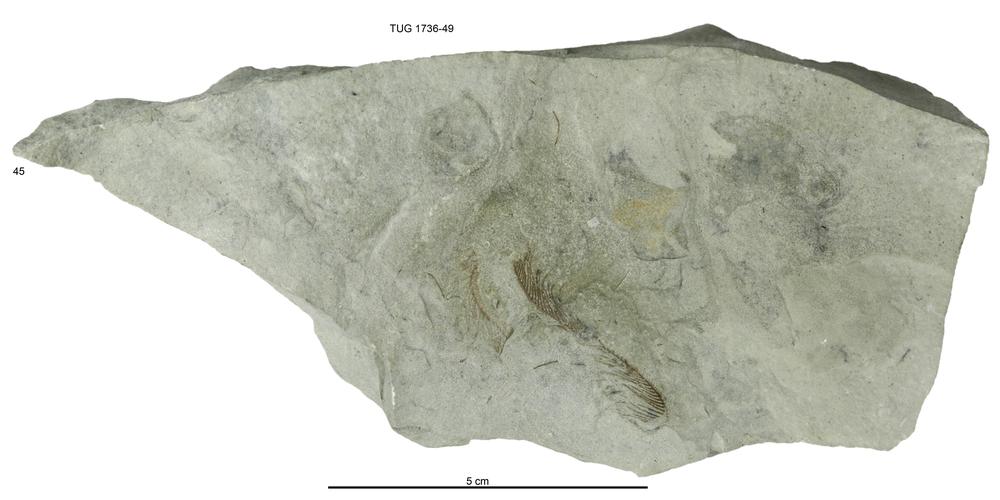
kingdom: Animalia
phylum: Echinodermata
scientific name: Echinodermata
